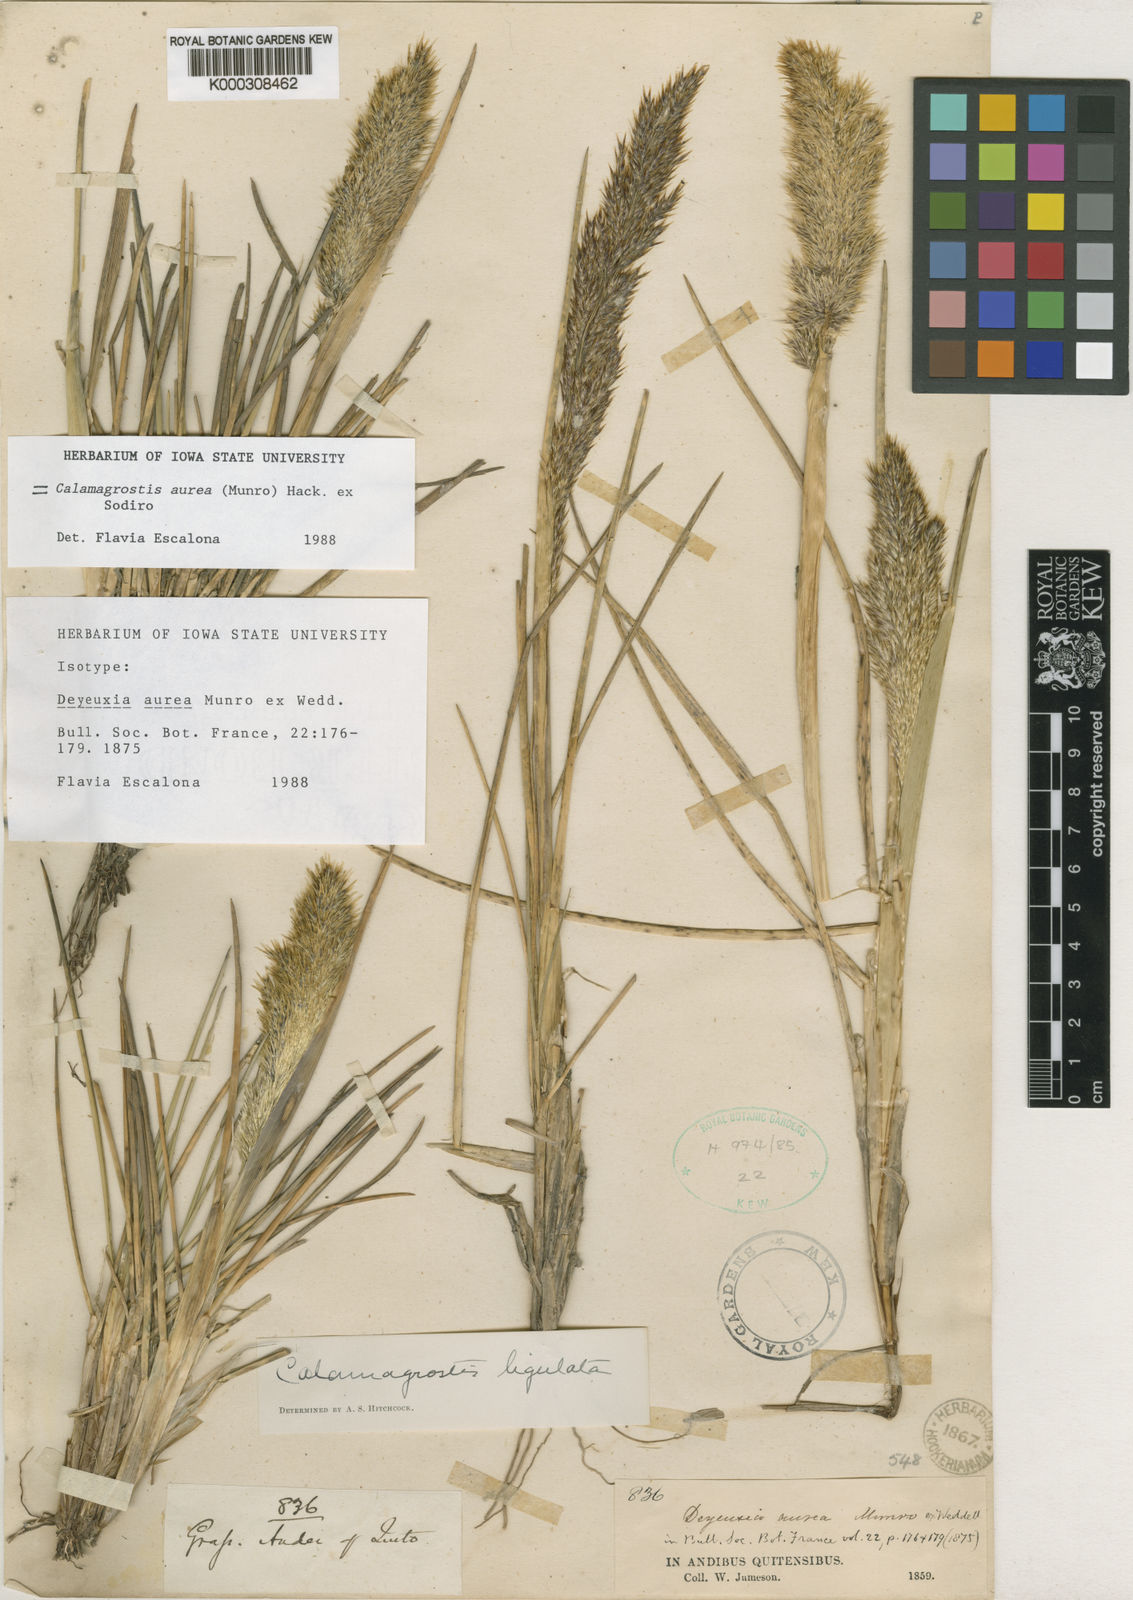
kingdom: Plantae
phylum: Tracheophyta
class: Liliopsida
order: Poales
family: Poaceae
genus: Deschampsia
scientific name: Deschampsia aurea
